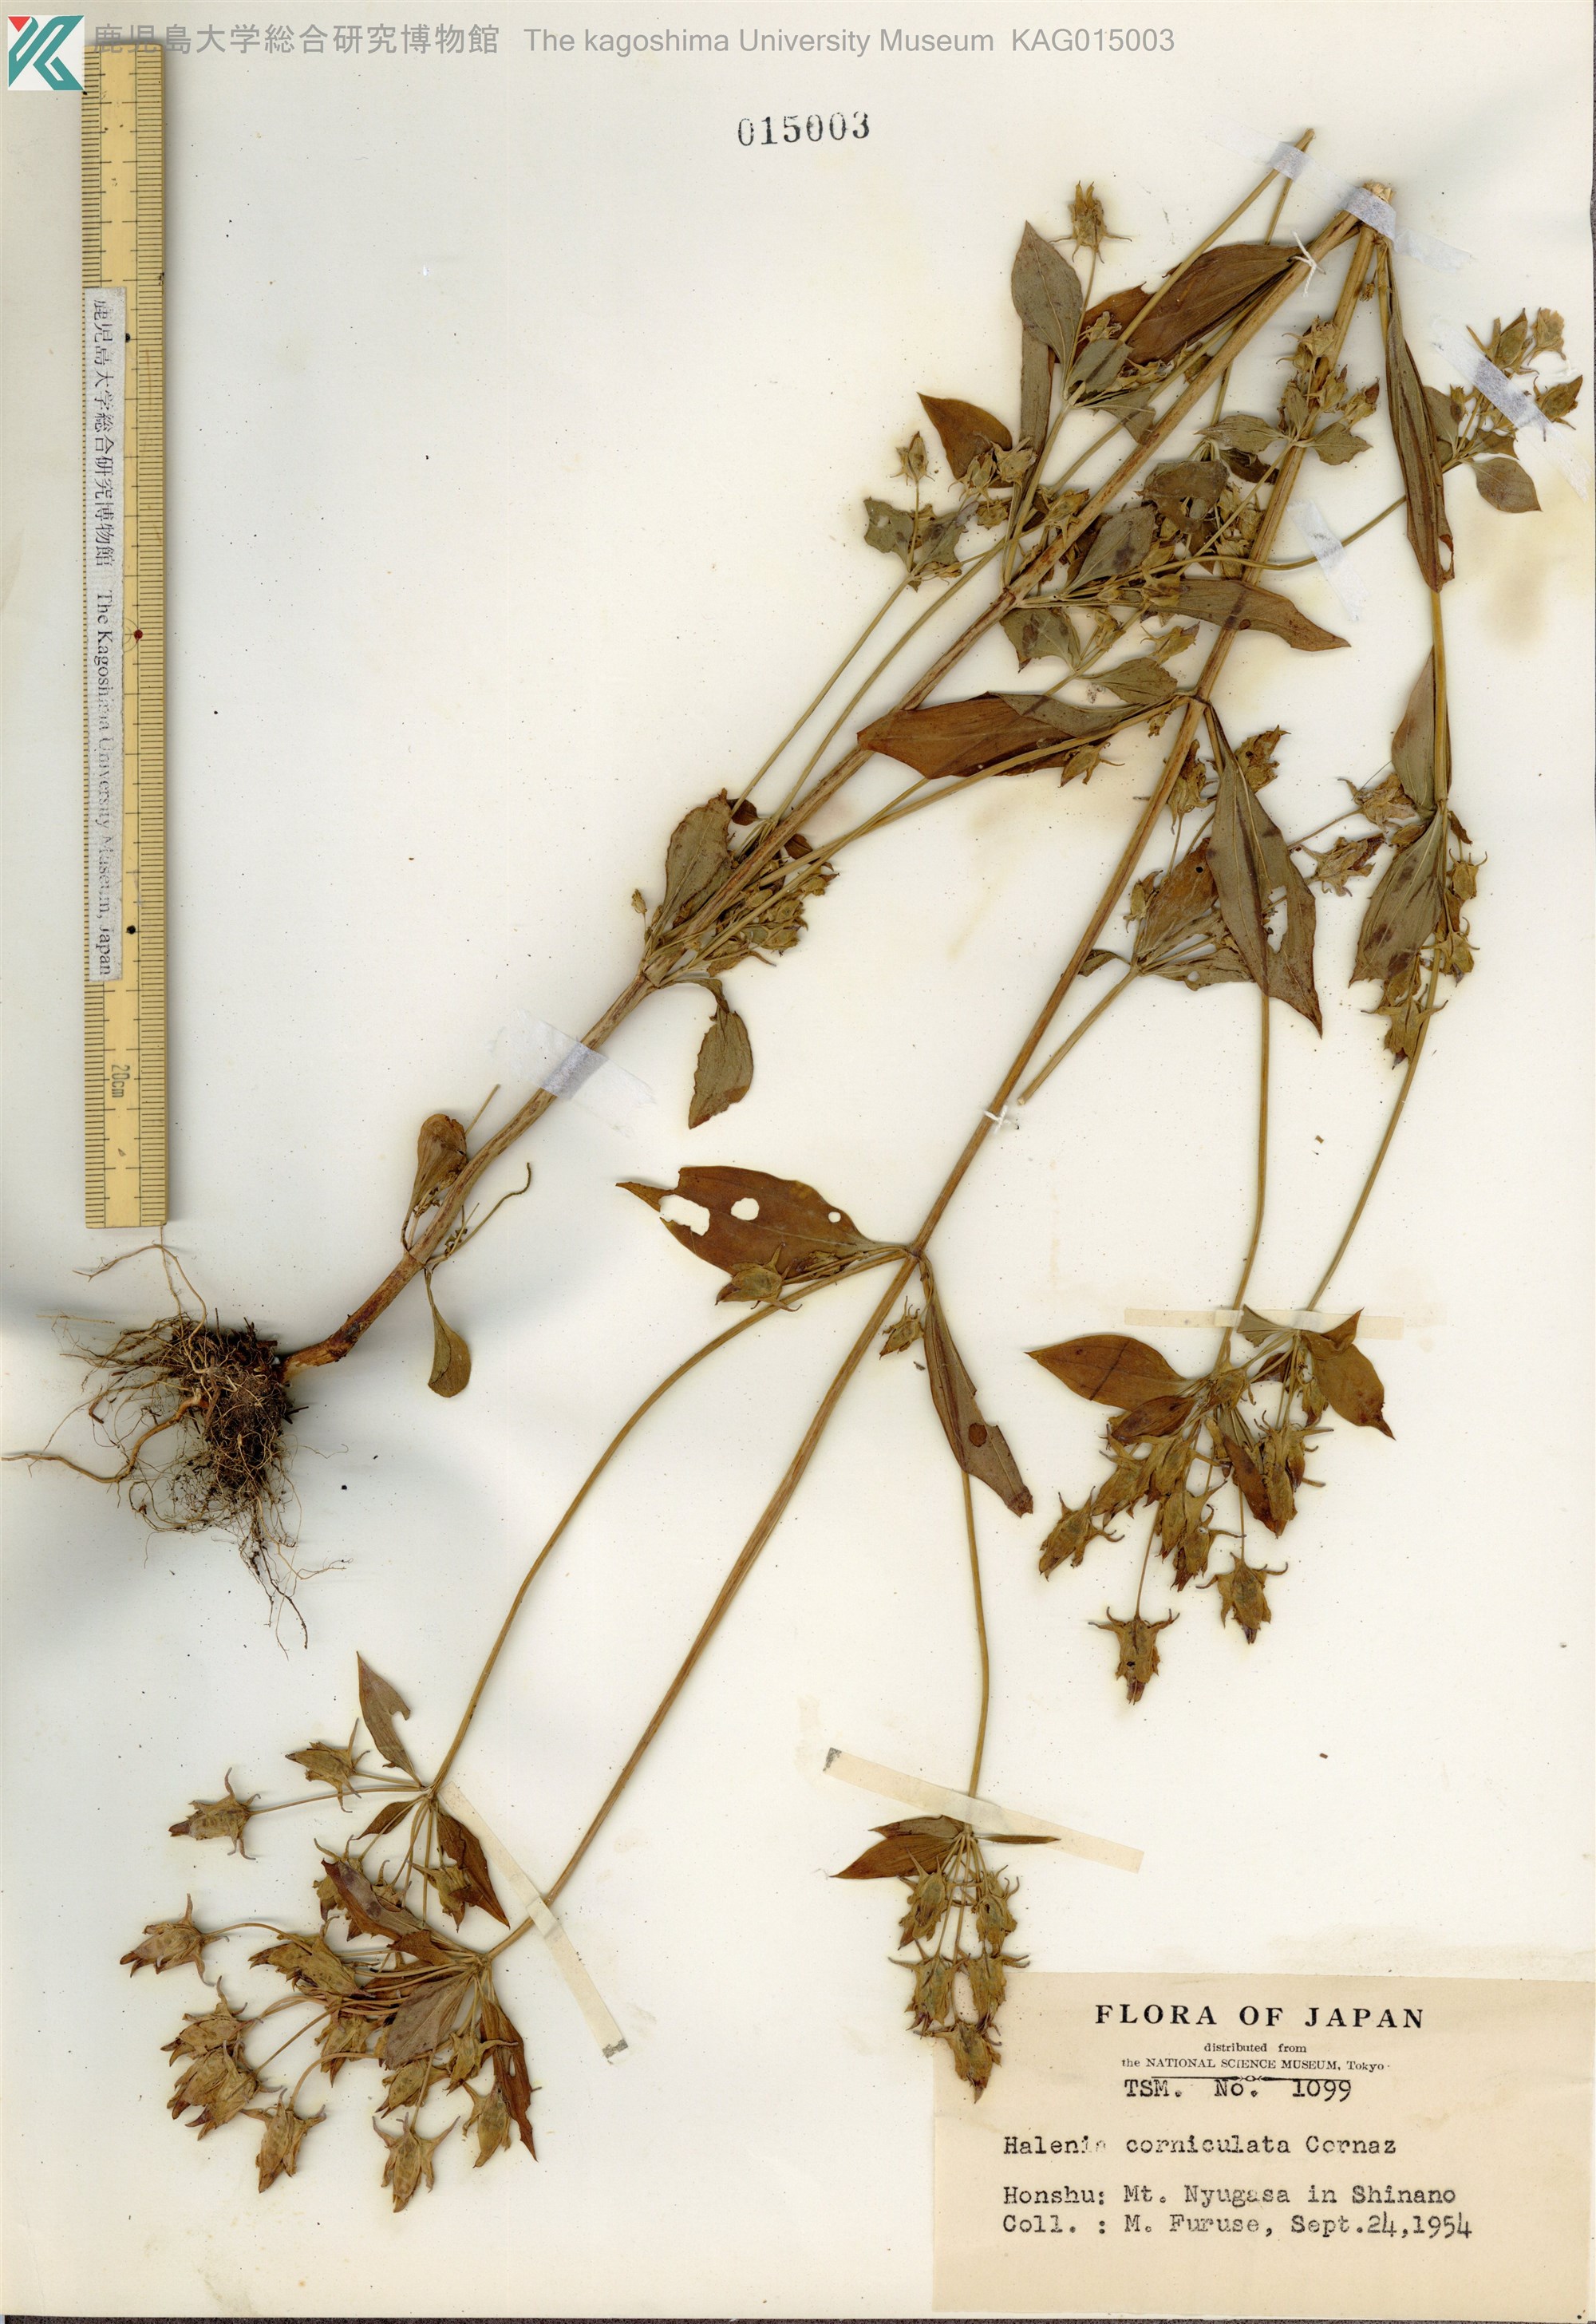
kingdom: Plantae
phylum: Tracheophyta
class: Magnoliopsida
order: Gentianales
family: Gentianaceae
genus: Halenia
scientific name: Halenia corniculata
